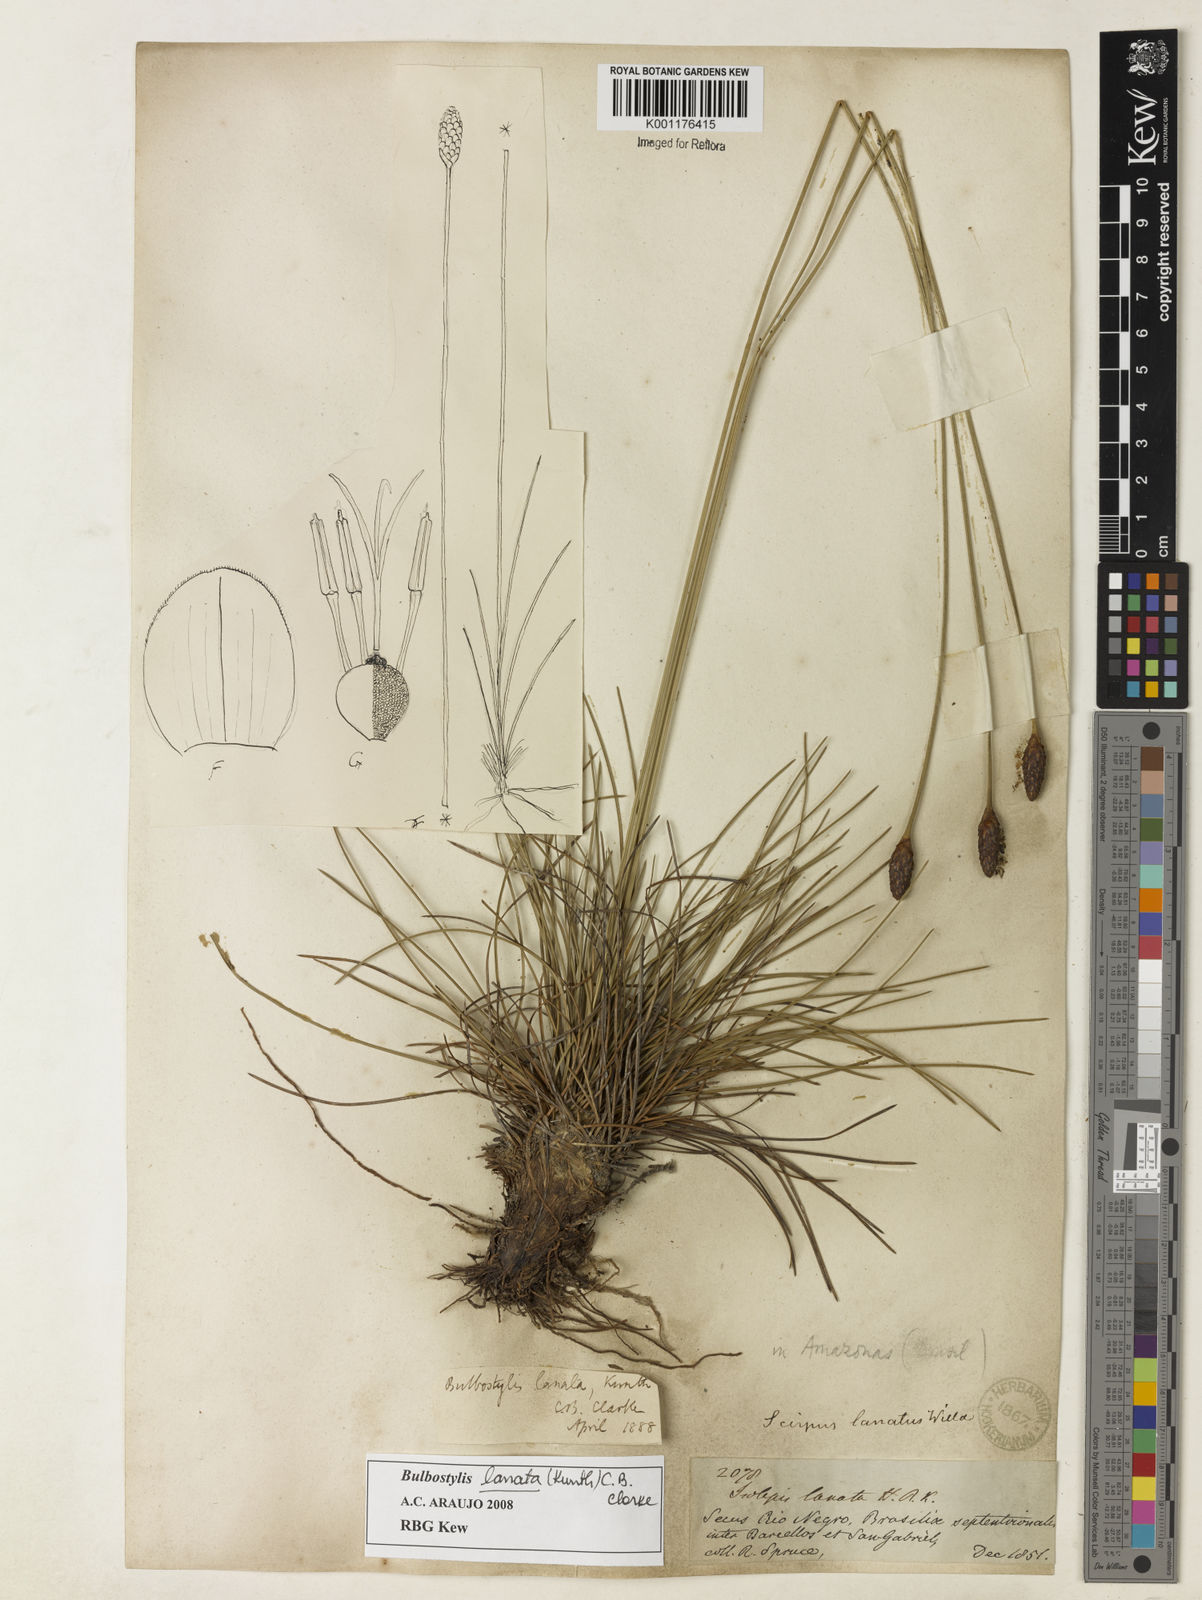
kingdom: Plantae
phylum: Tracheophyta
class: Liliopsida
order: Poales
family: Cyperaceae
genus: Bulbostylis
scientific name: Bulbostylis lanata
